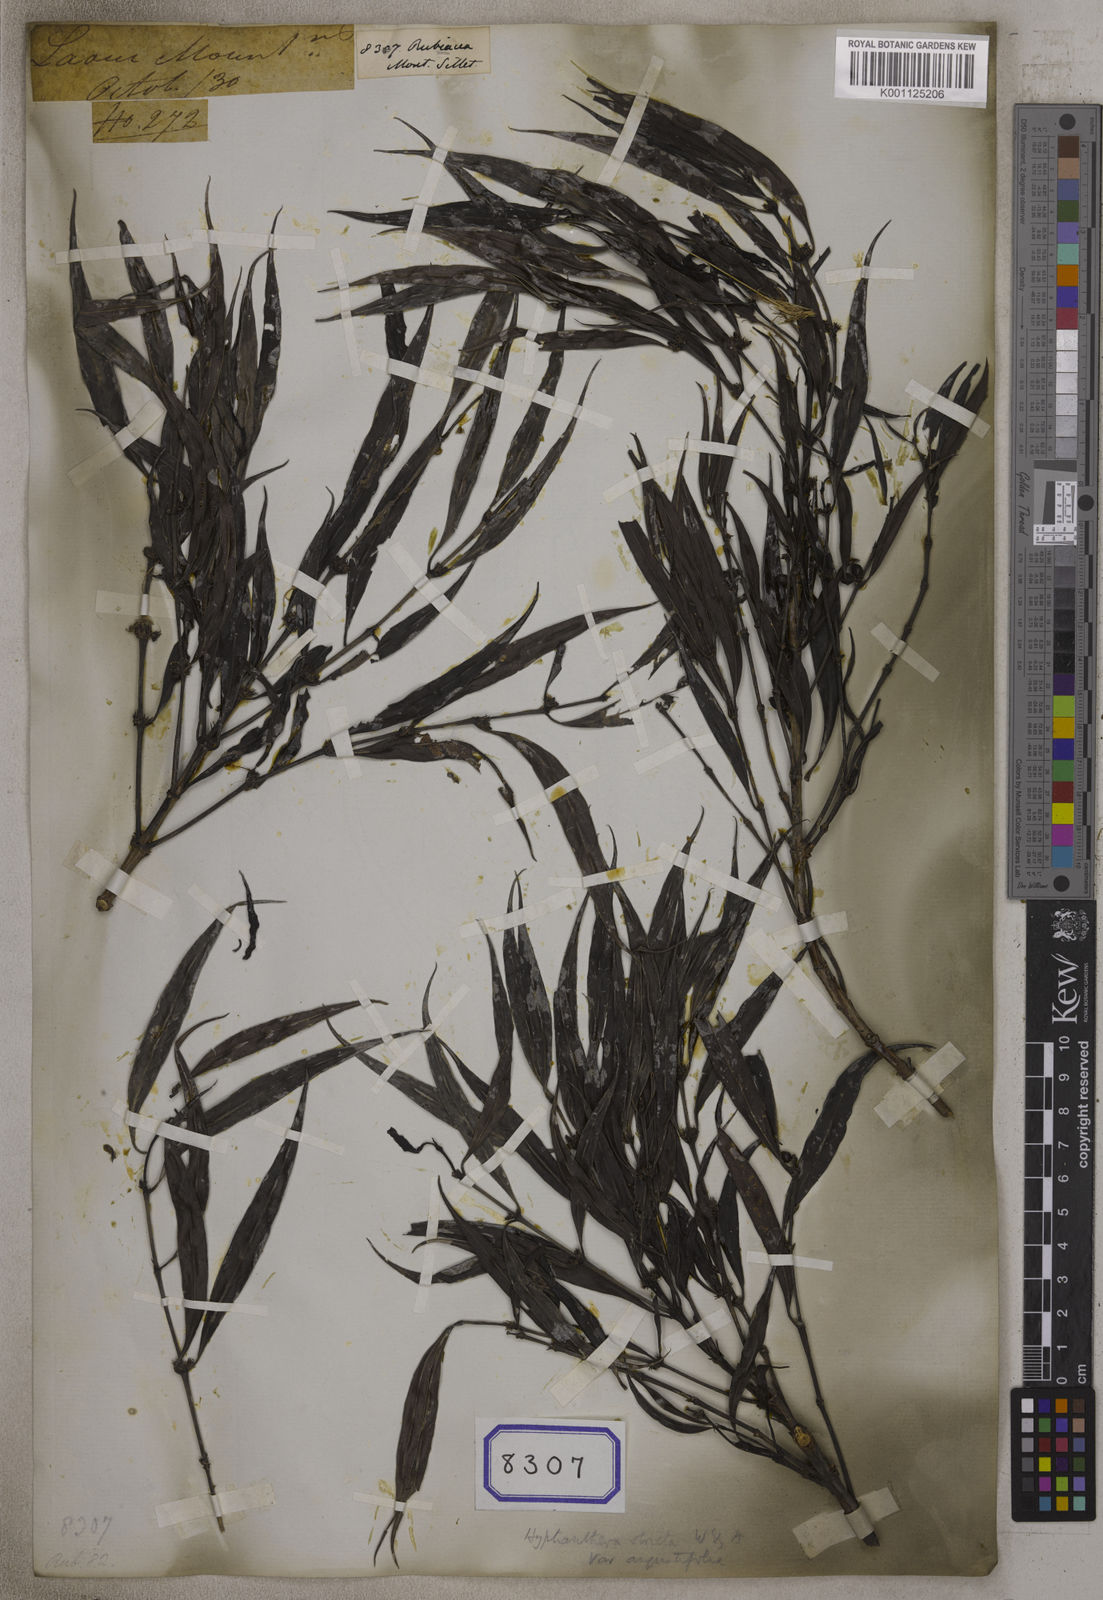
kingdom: Plantae
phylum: Tracheophyta
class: Magnoliopsida
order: Gentianales
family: Rubiaceae
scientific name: Rubiaceae
